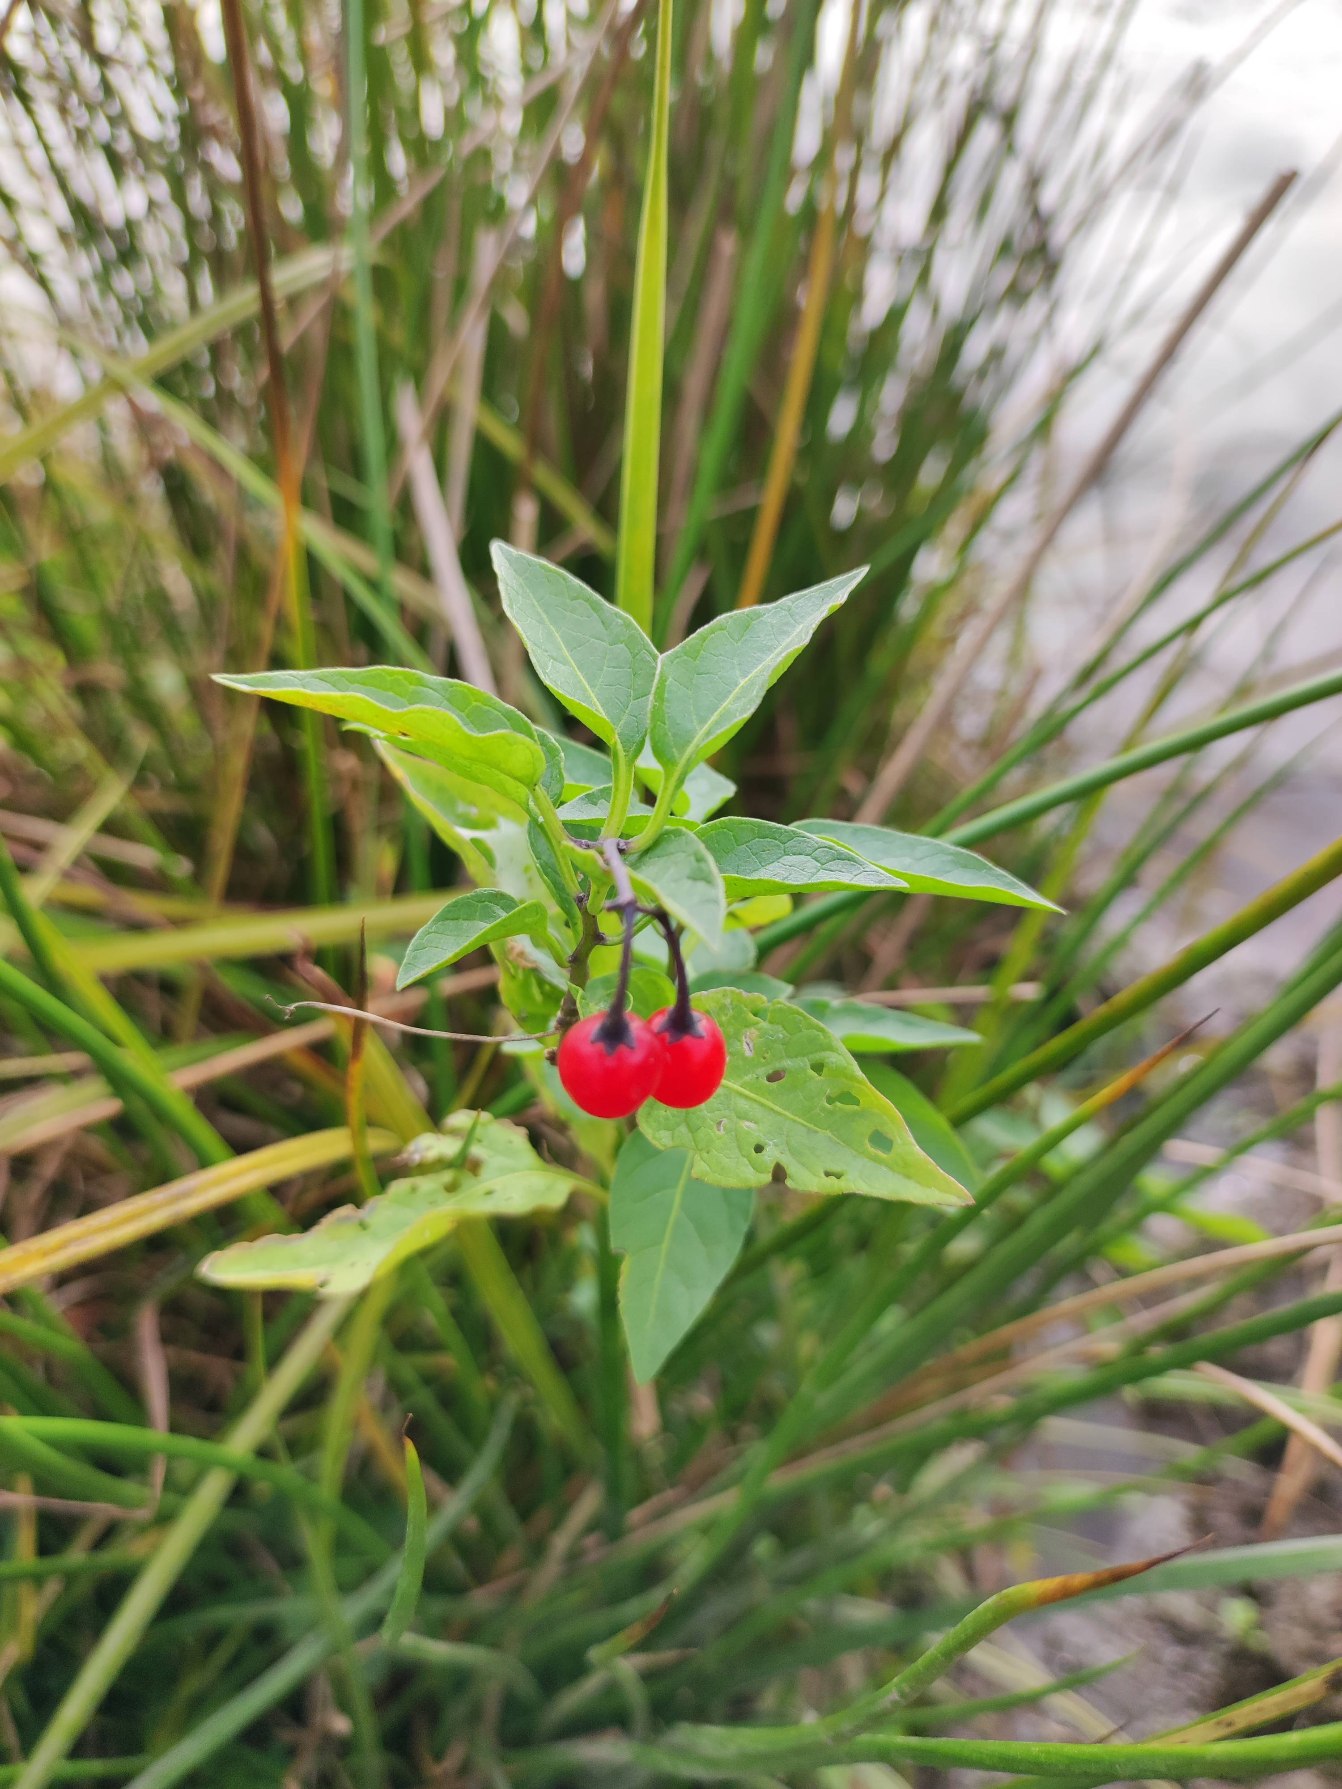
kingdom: Plantae
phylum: Tracheophyta
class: Magnoliopsida
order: Solanales
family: Solanaceae
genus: Solanum
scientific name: Solanum dulcamara
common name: Bittersød natskygge
